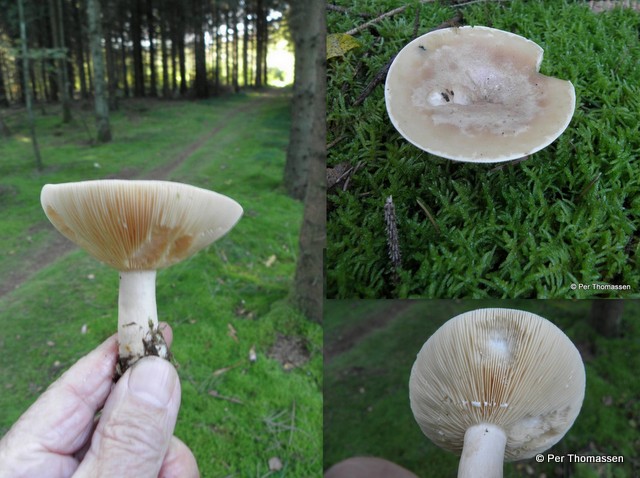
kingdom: Fungi
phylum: Basidiomycota
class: Agaricomycetes
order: Russulales
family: Russulaceae
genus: Lactarius
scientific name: Lactarius trivialis
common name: nordisk mælkehat
